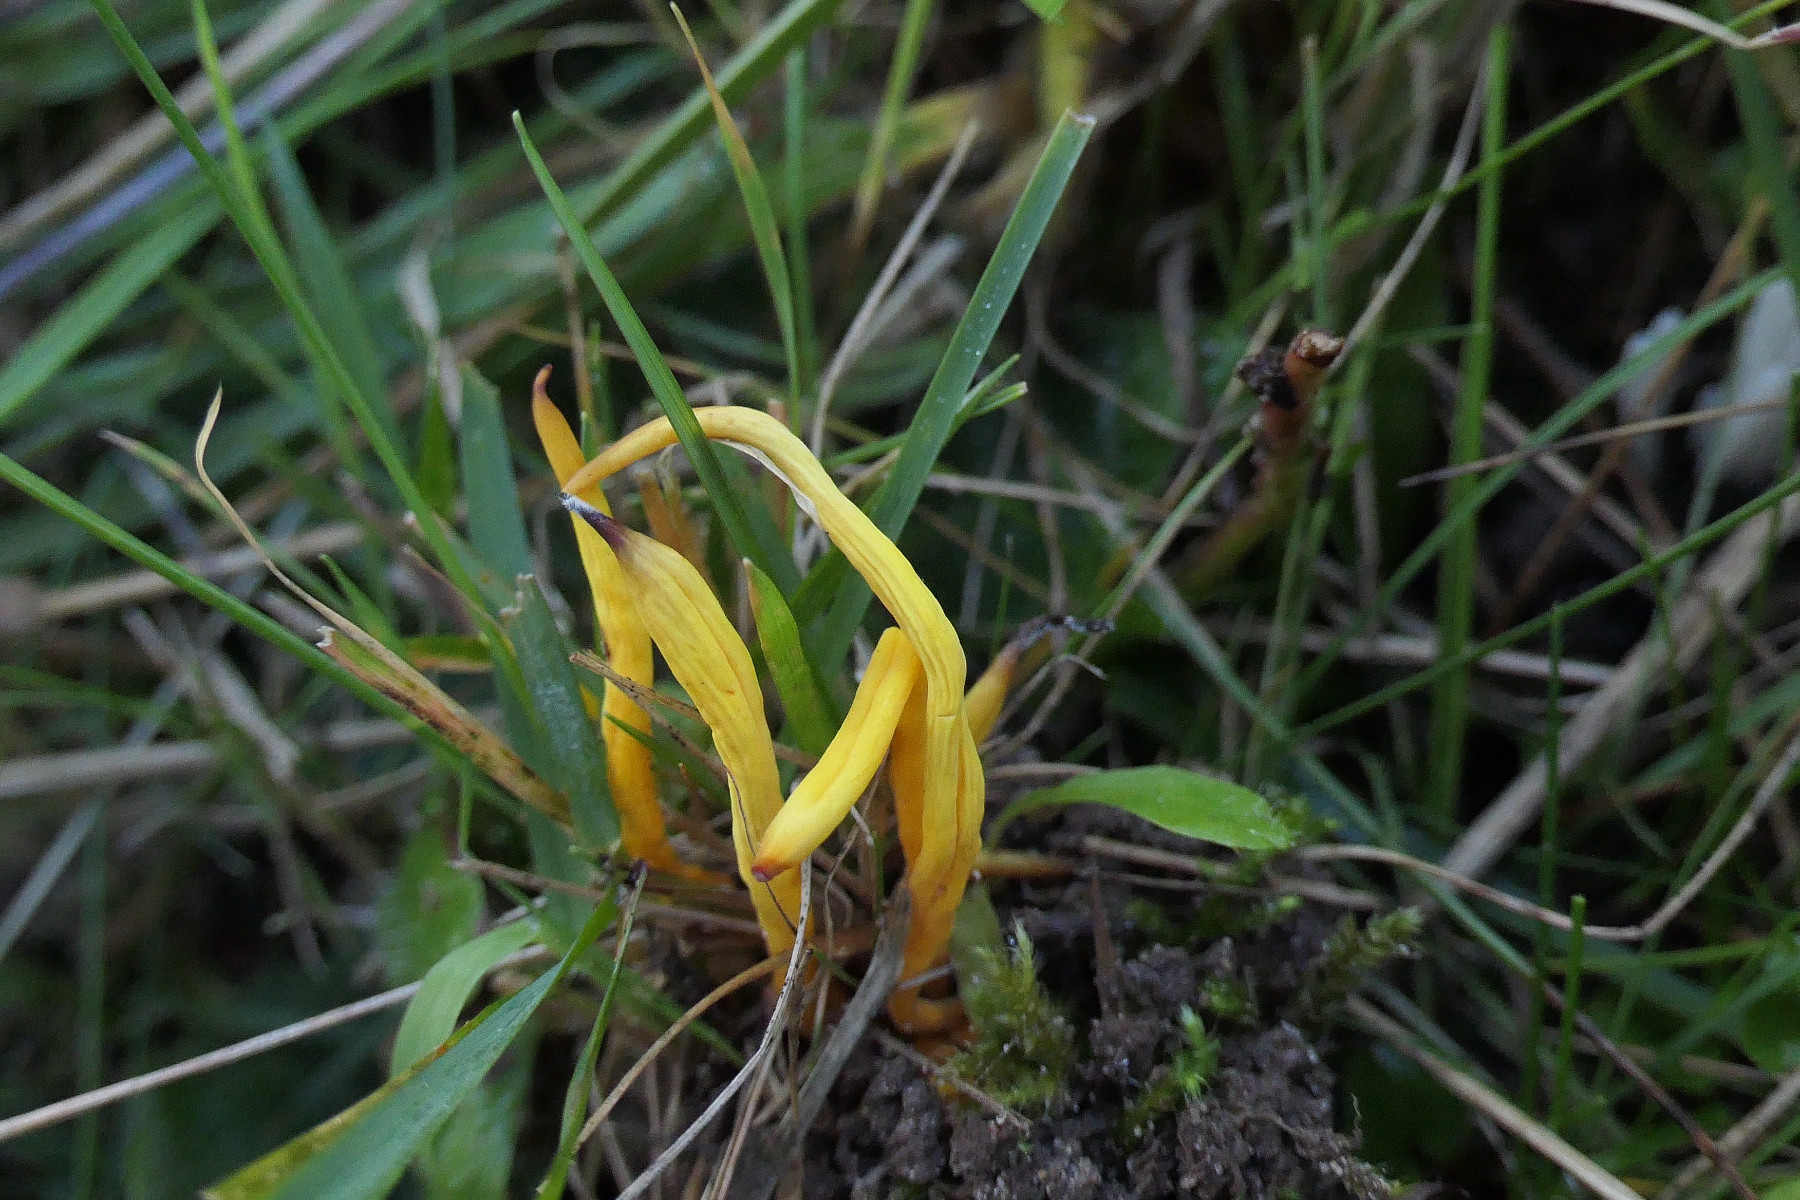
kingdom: Fungi
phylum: Basidiomycota
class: Agaricomycetes
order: Agaricales
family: Clavariaceae
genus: Clavulinopsis
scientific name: Clavulinopsis laeticolor
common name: flamme-køllesvamp
